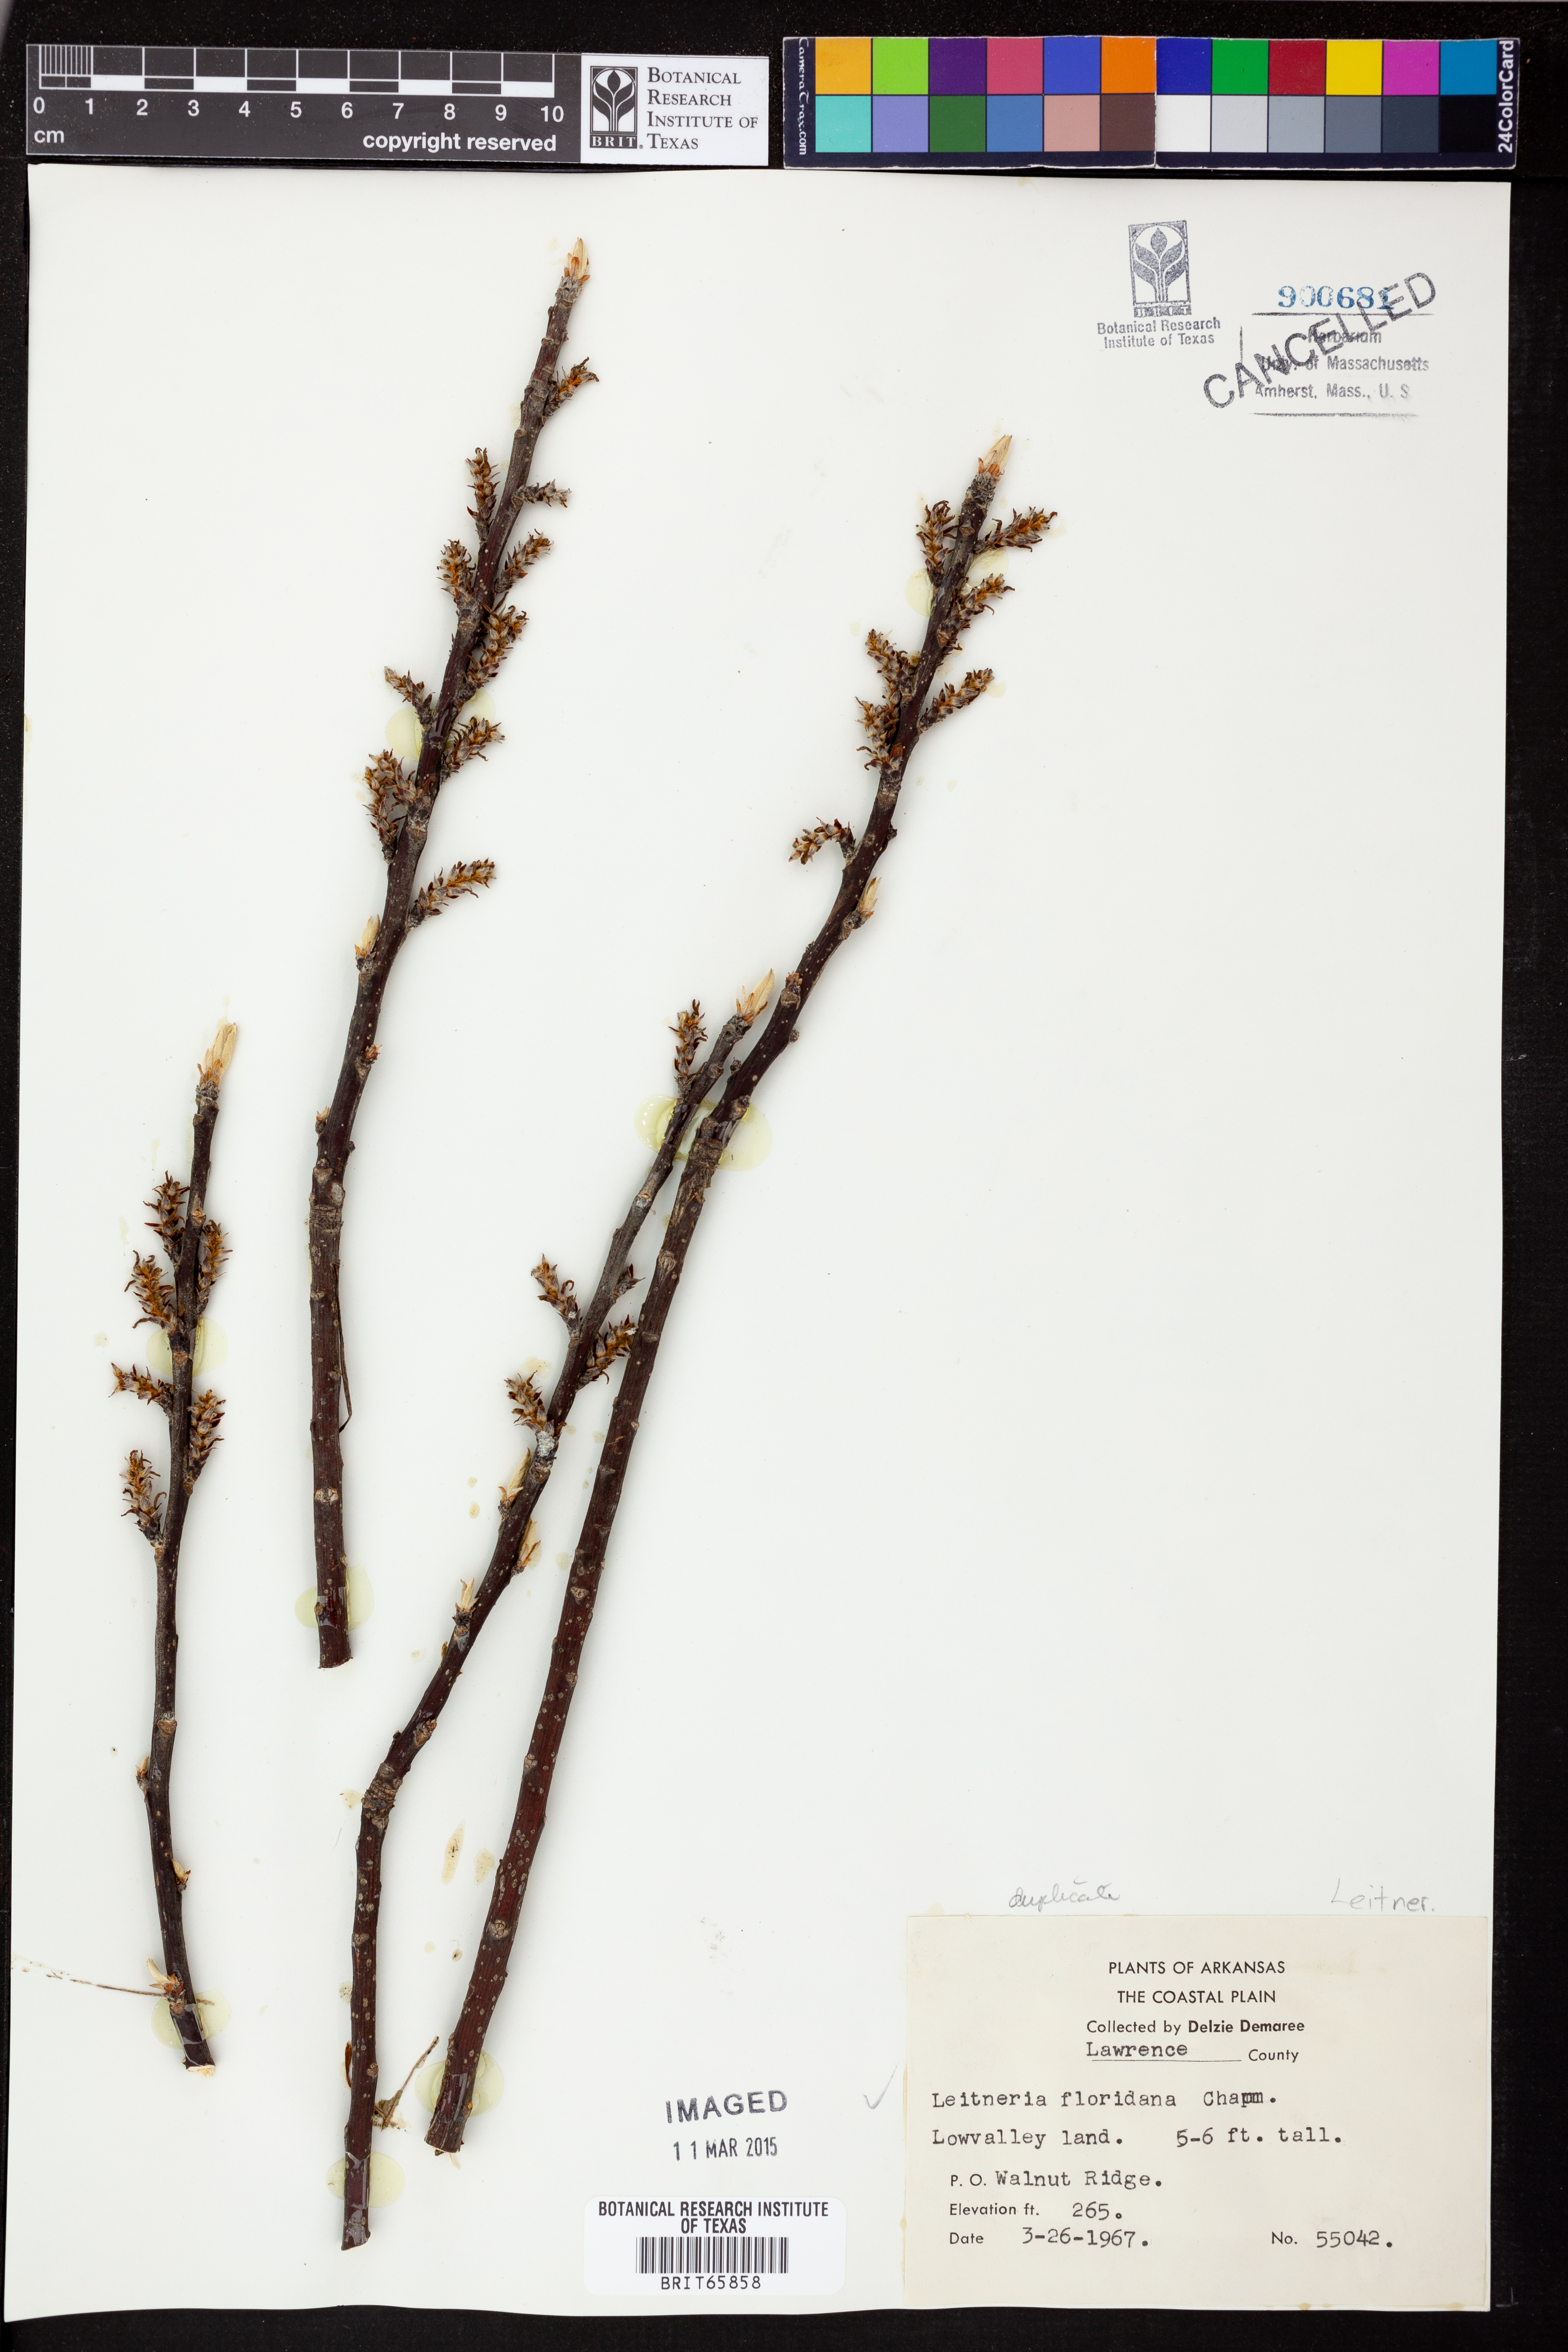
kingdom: Plantae
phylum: Tracheophyta
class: Magnoliopsida
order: Sapindales
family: Simaroubaceae
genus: Leitneria
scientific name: Leitneria floridana
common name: Corkwood
